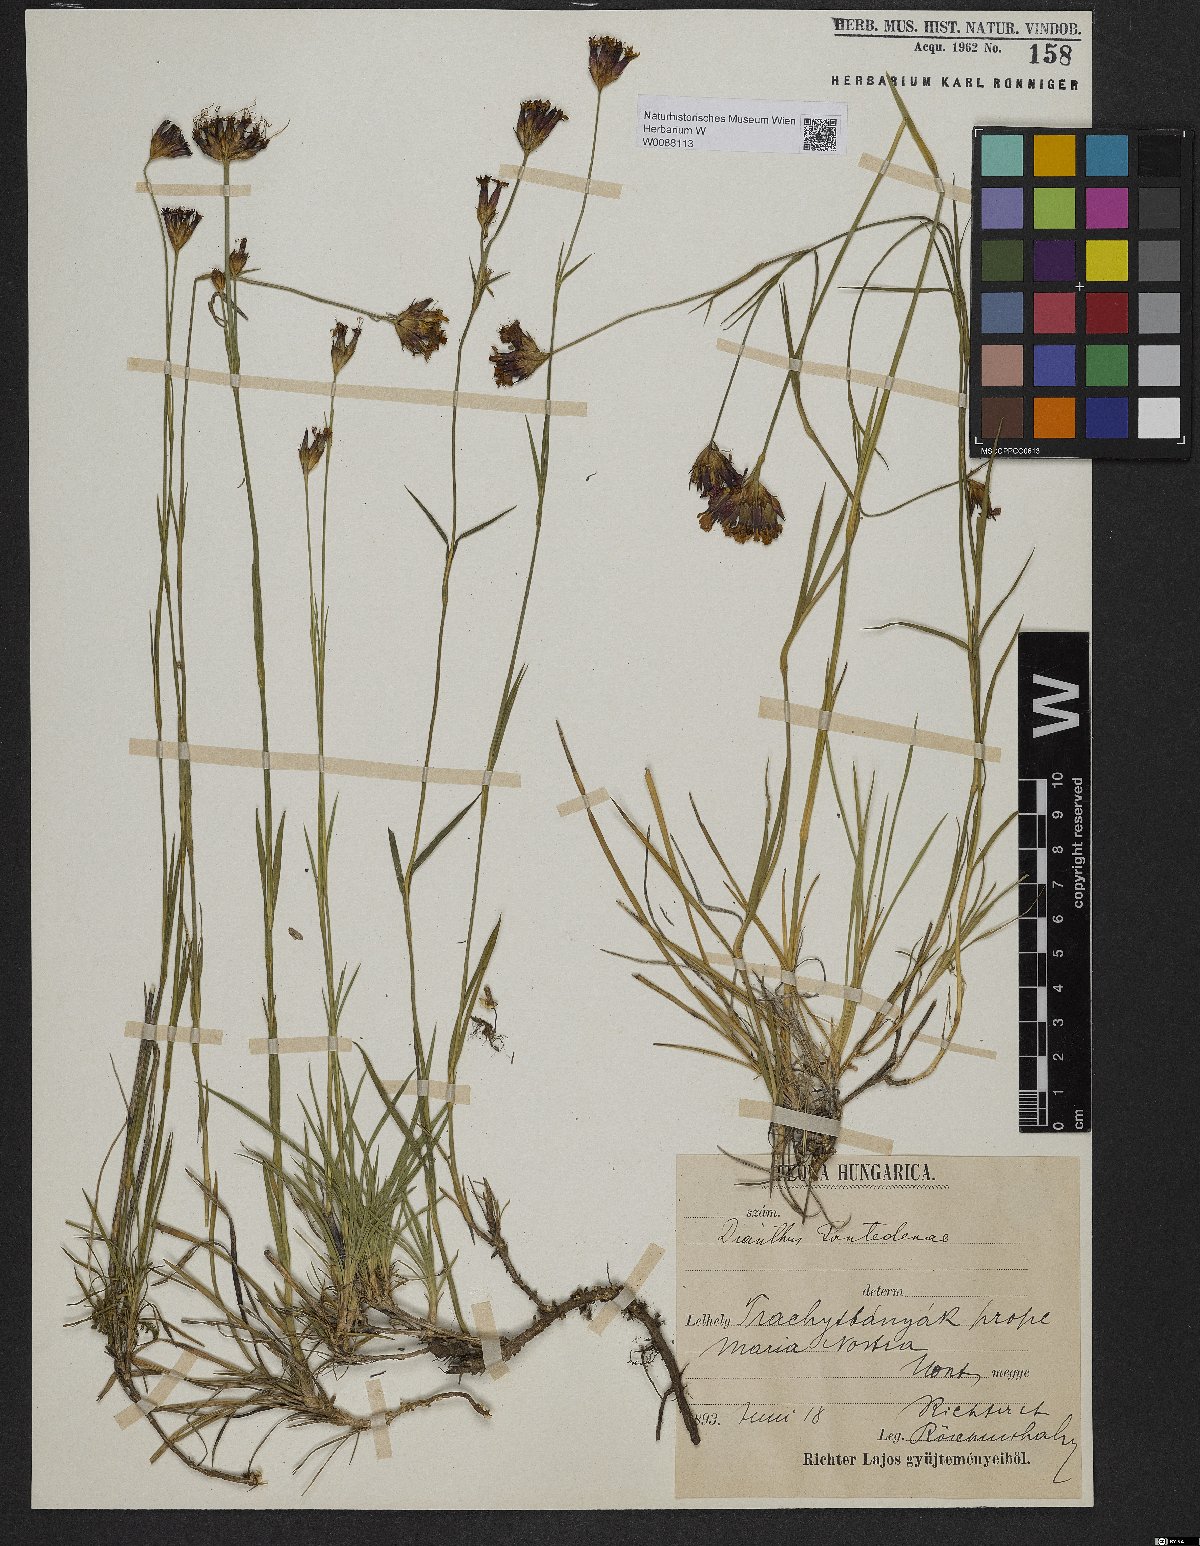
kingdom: Plantae
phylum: Tracheophyta
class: Magnoliopsida
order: Caryophyllales
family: Caryophyllaceae
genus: Dianthus
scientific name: Dianthus pontederae
